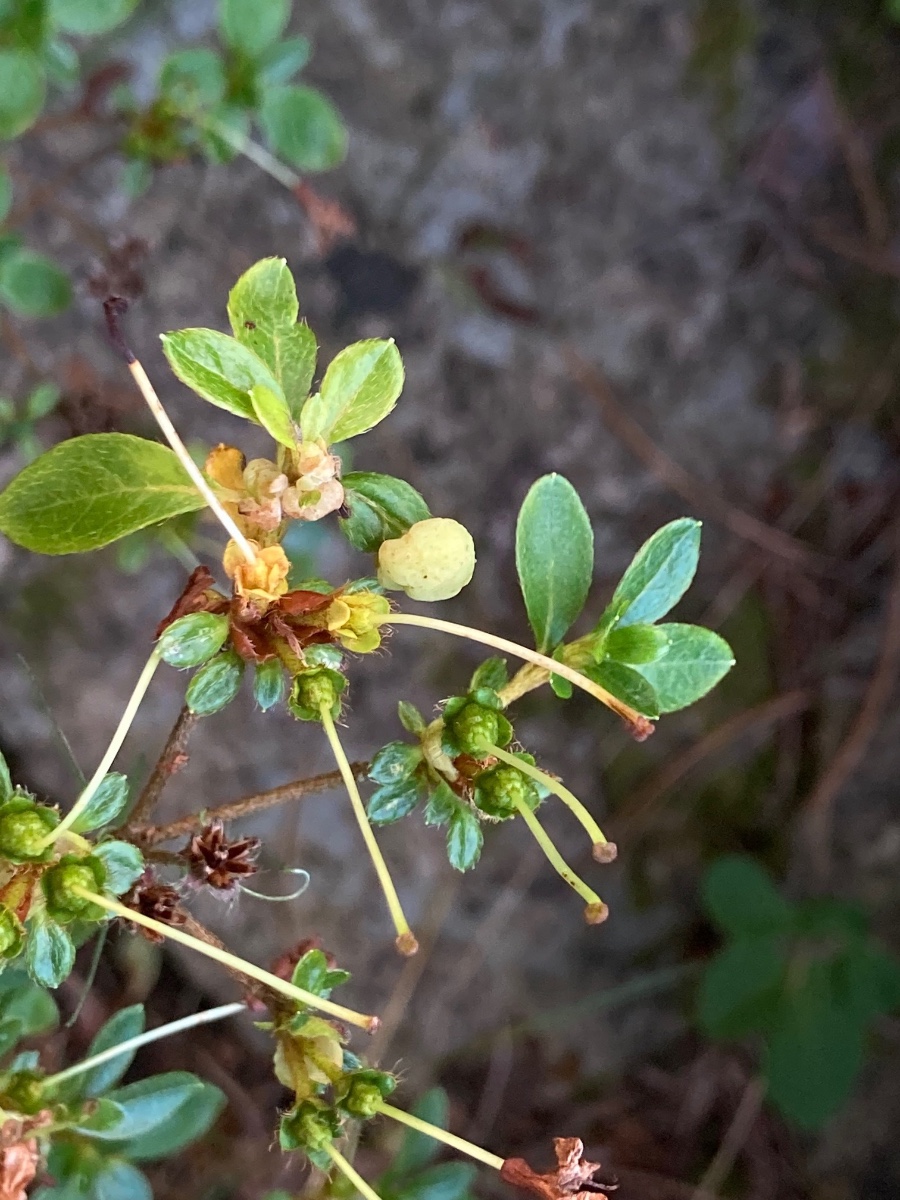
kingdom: Fungi
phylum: Basidiomycota
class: Exobasidiomycetes
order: Exobasidiales
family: Exobasidiaceae
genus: Exobasidium
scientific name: Exobasidium rhododendri
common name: rhododendron-bøllesvamp
